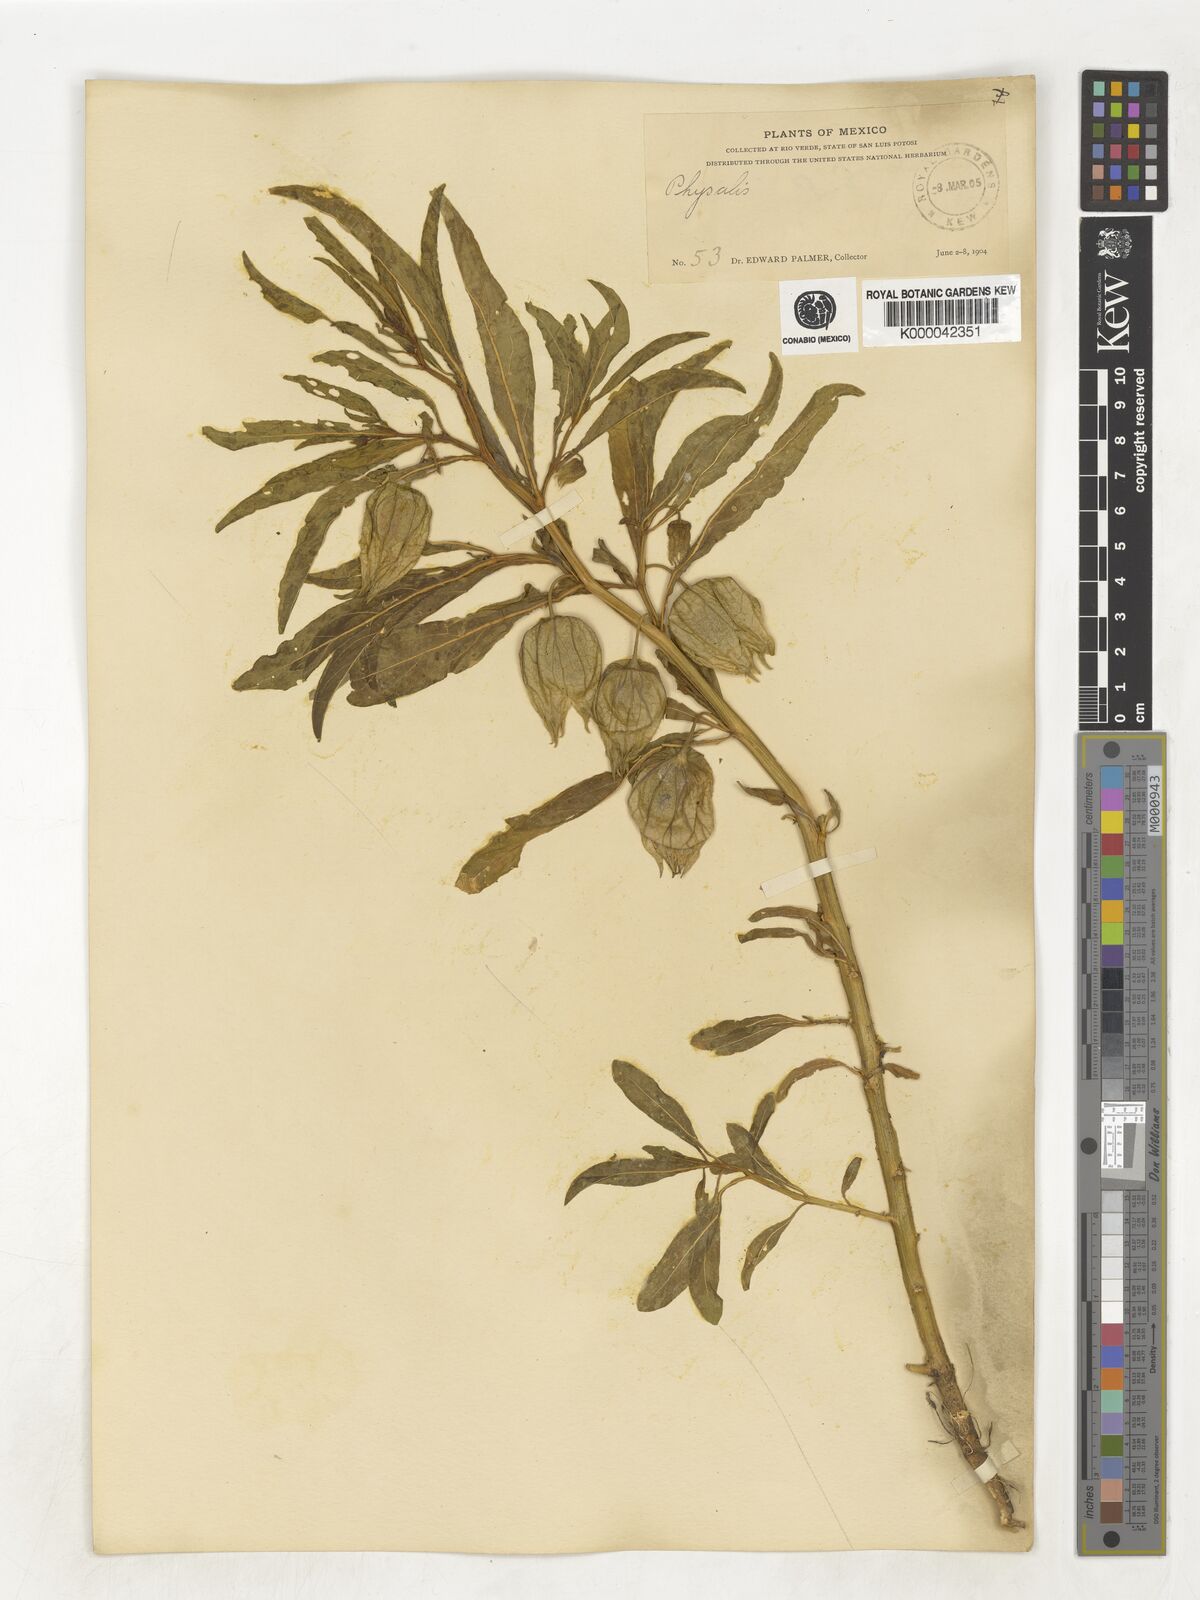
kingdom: Plantae
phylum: Tracheophyta
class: Magnoliopsida
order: Solanales
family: Solanaceae
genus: Physalis
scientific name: Physalis
